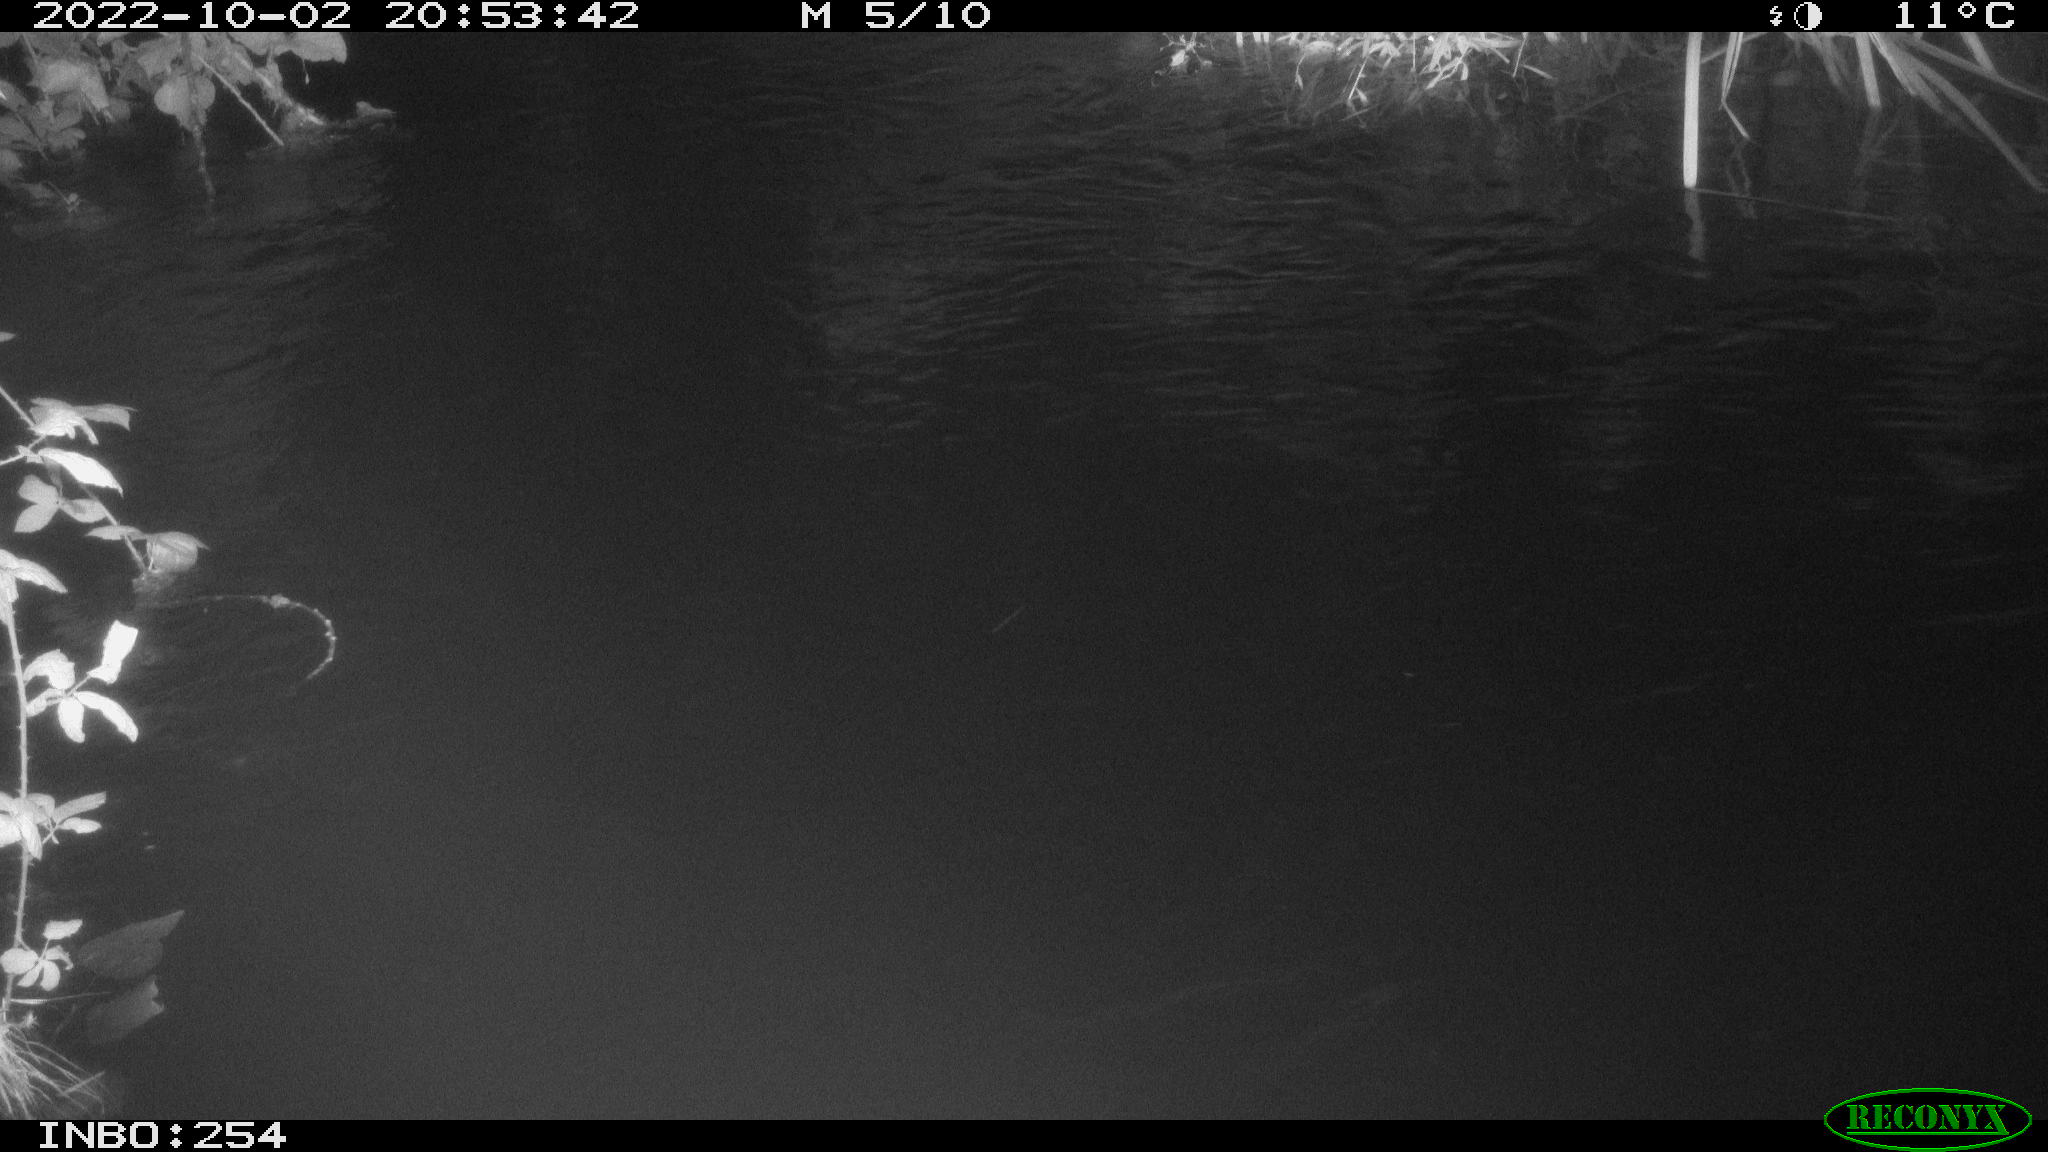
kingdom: Animalia
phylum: Chordata
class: Mammalia
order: Rodentia
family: Muridae
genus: Rattus
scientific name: Rattus norvegicus
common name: Brown rat
